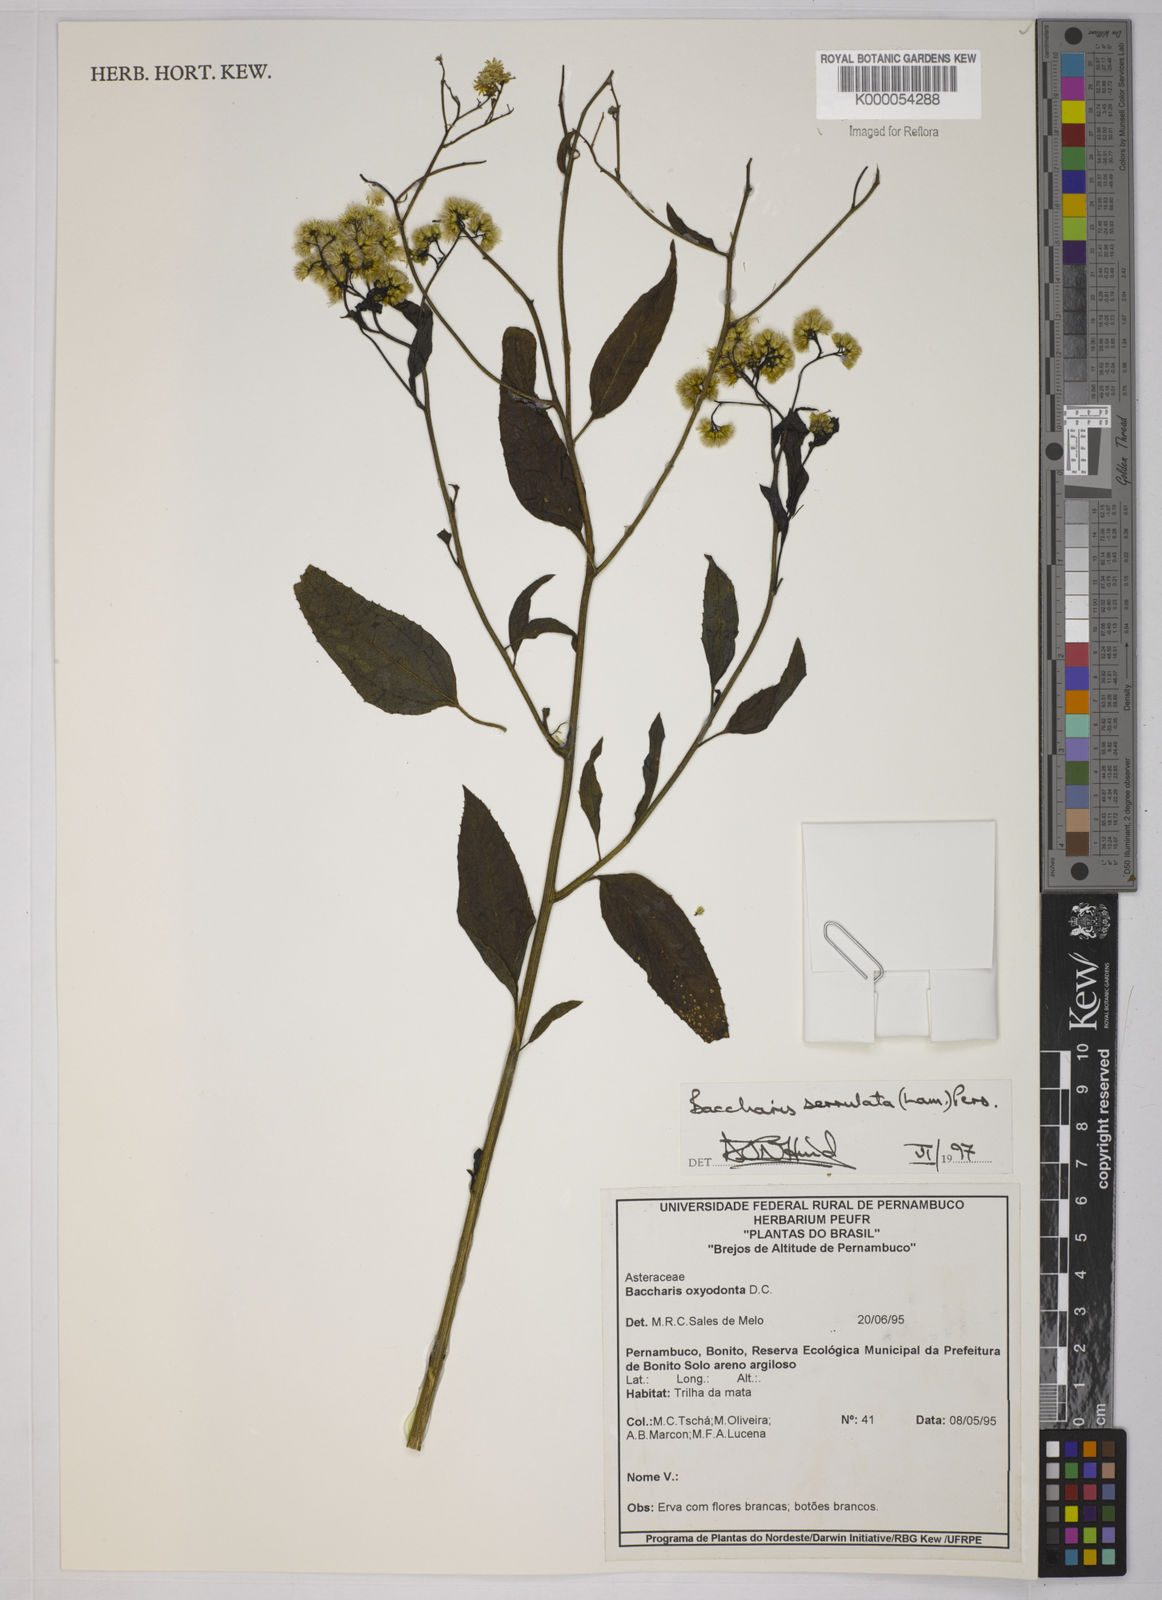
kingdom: Plantae
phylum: Tracheophyta
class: Magnoliopsida
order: Asterales
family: Asteraceae
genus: Baccharis
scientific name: Baccharis serrulata
